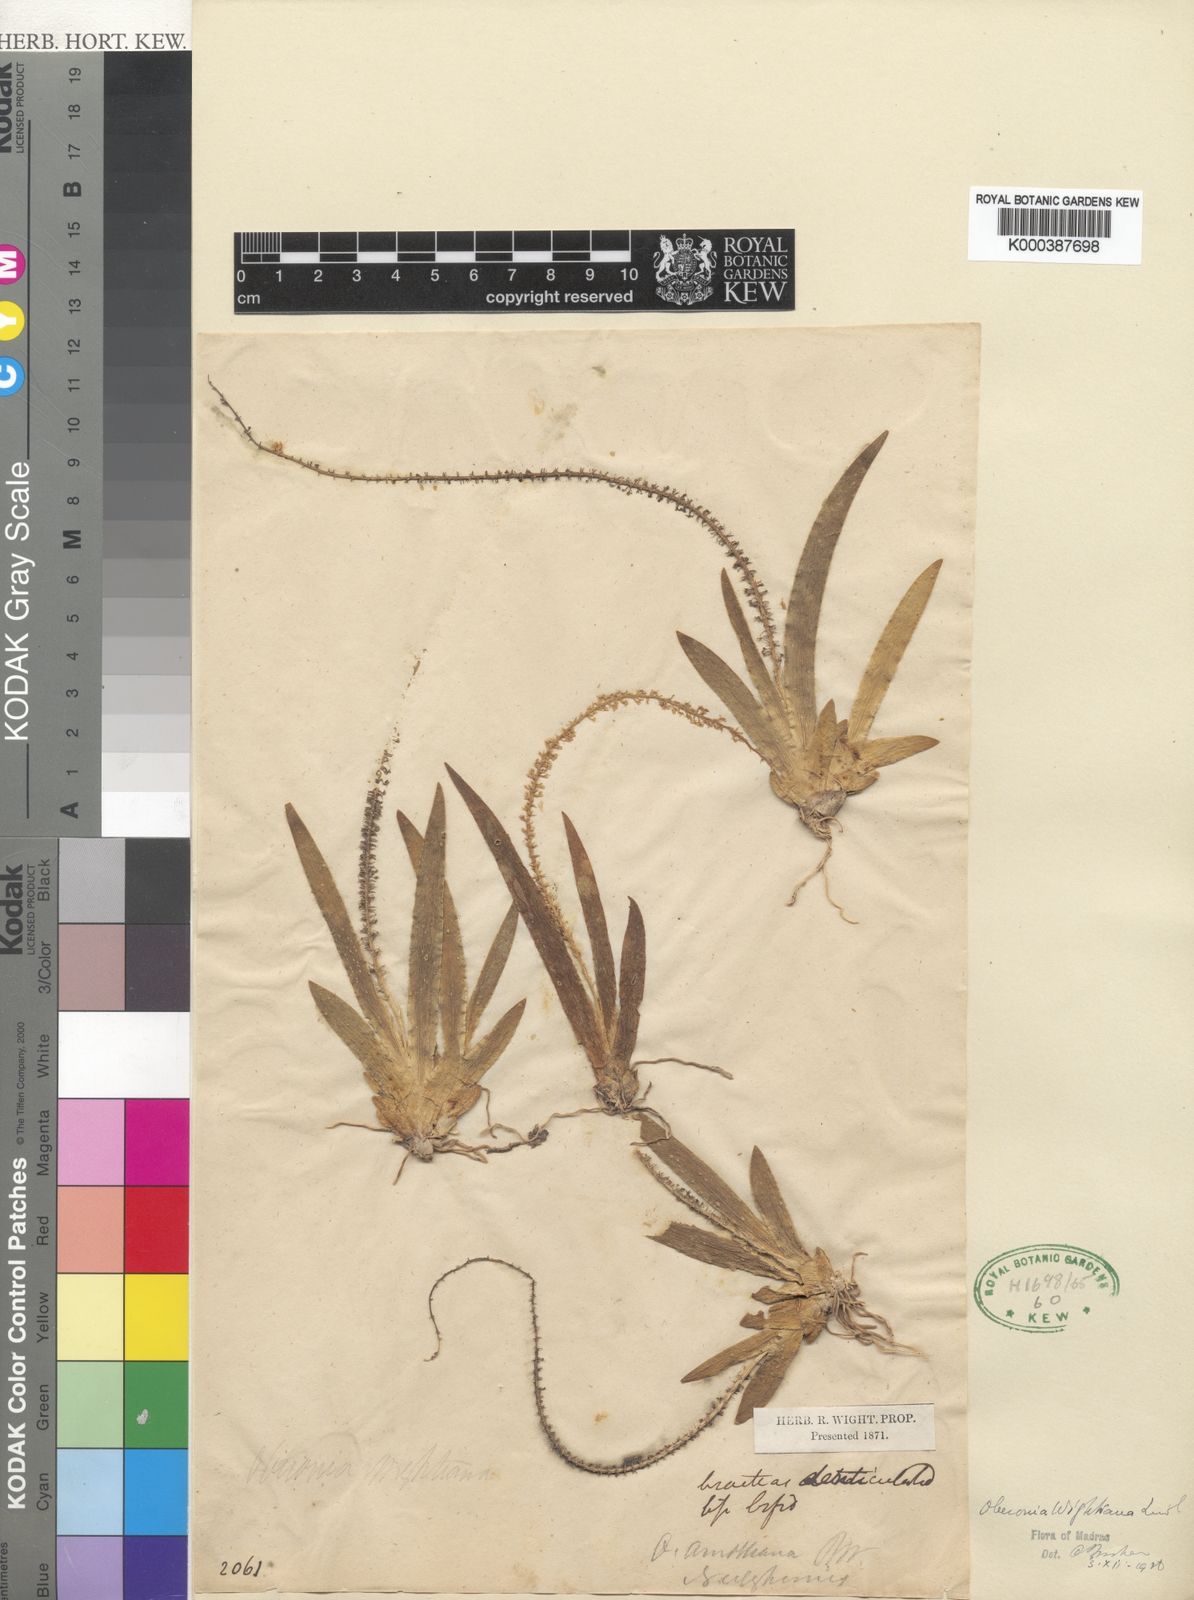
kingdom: Plantae
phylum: Tracheophyta
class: Liliopsida
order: Asparagales
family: Orchidaceae
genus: Oberonia
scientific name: Oberonia orbicularis
